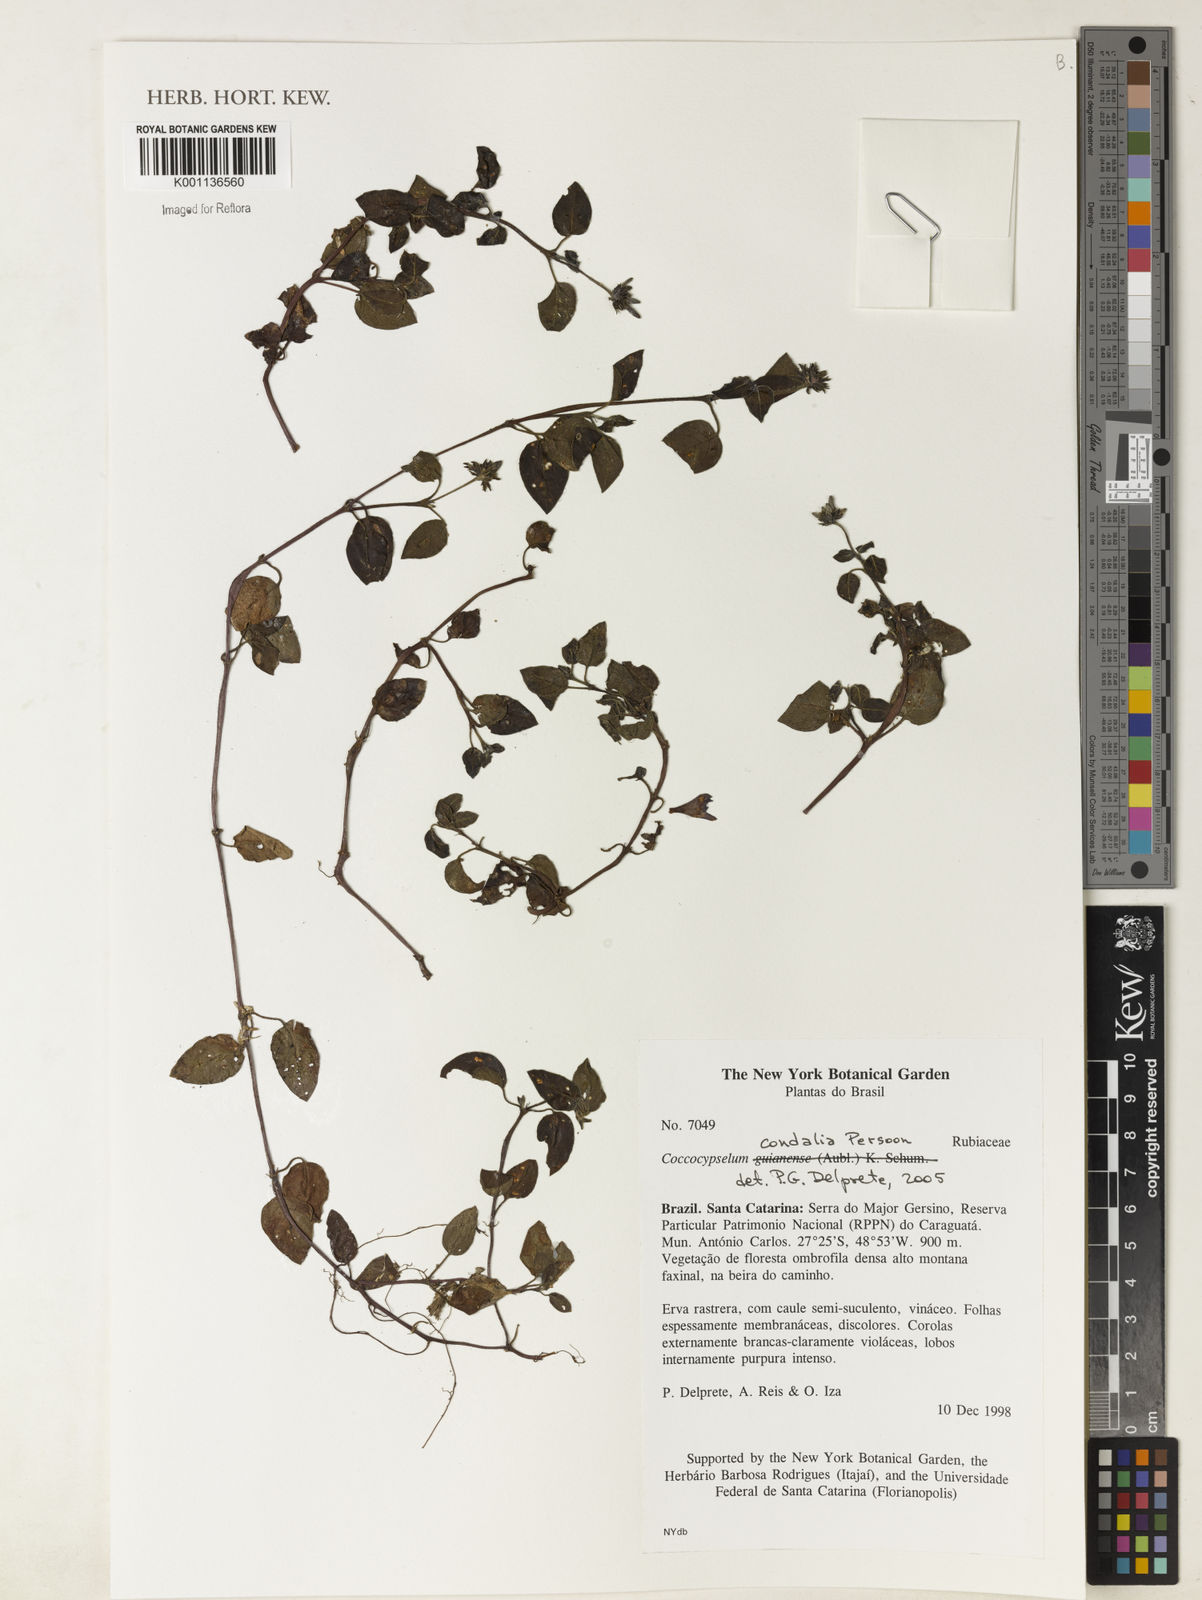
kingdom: Plantae
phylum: Tracheophyta
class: Magnoliopsida
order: Gentianales
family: Rubiaceae
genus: Coccocypselum
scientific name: Coccocypselum condalia
